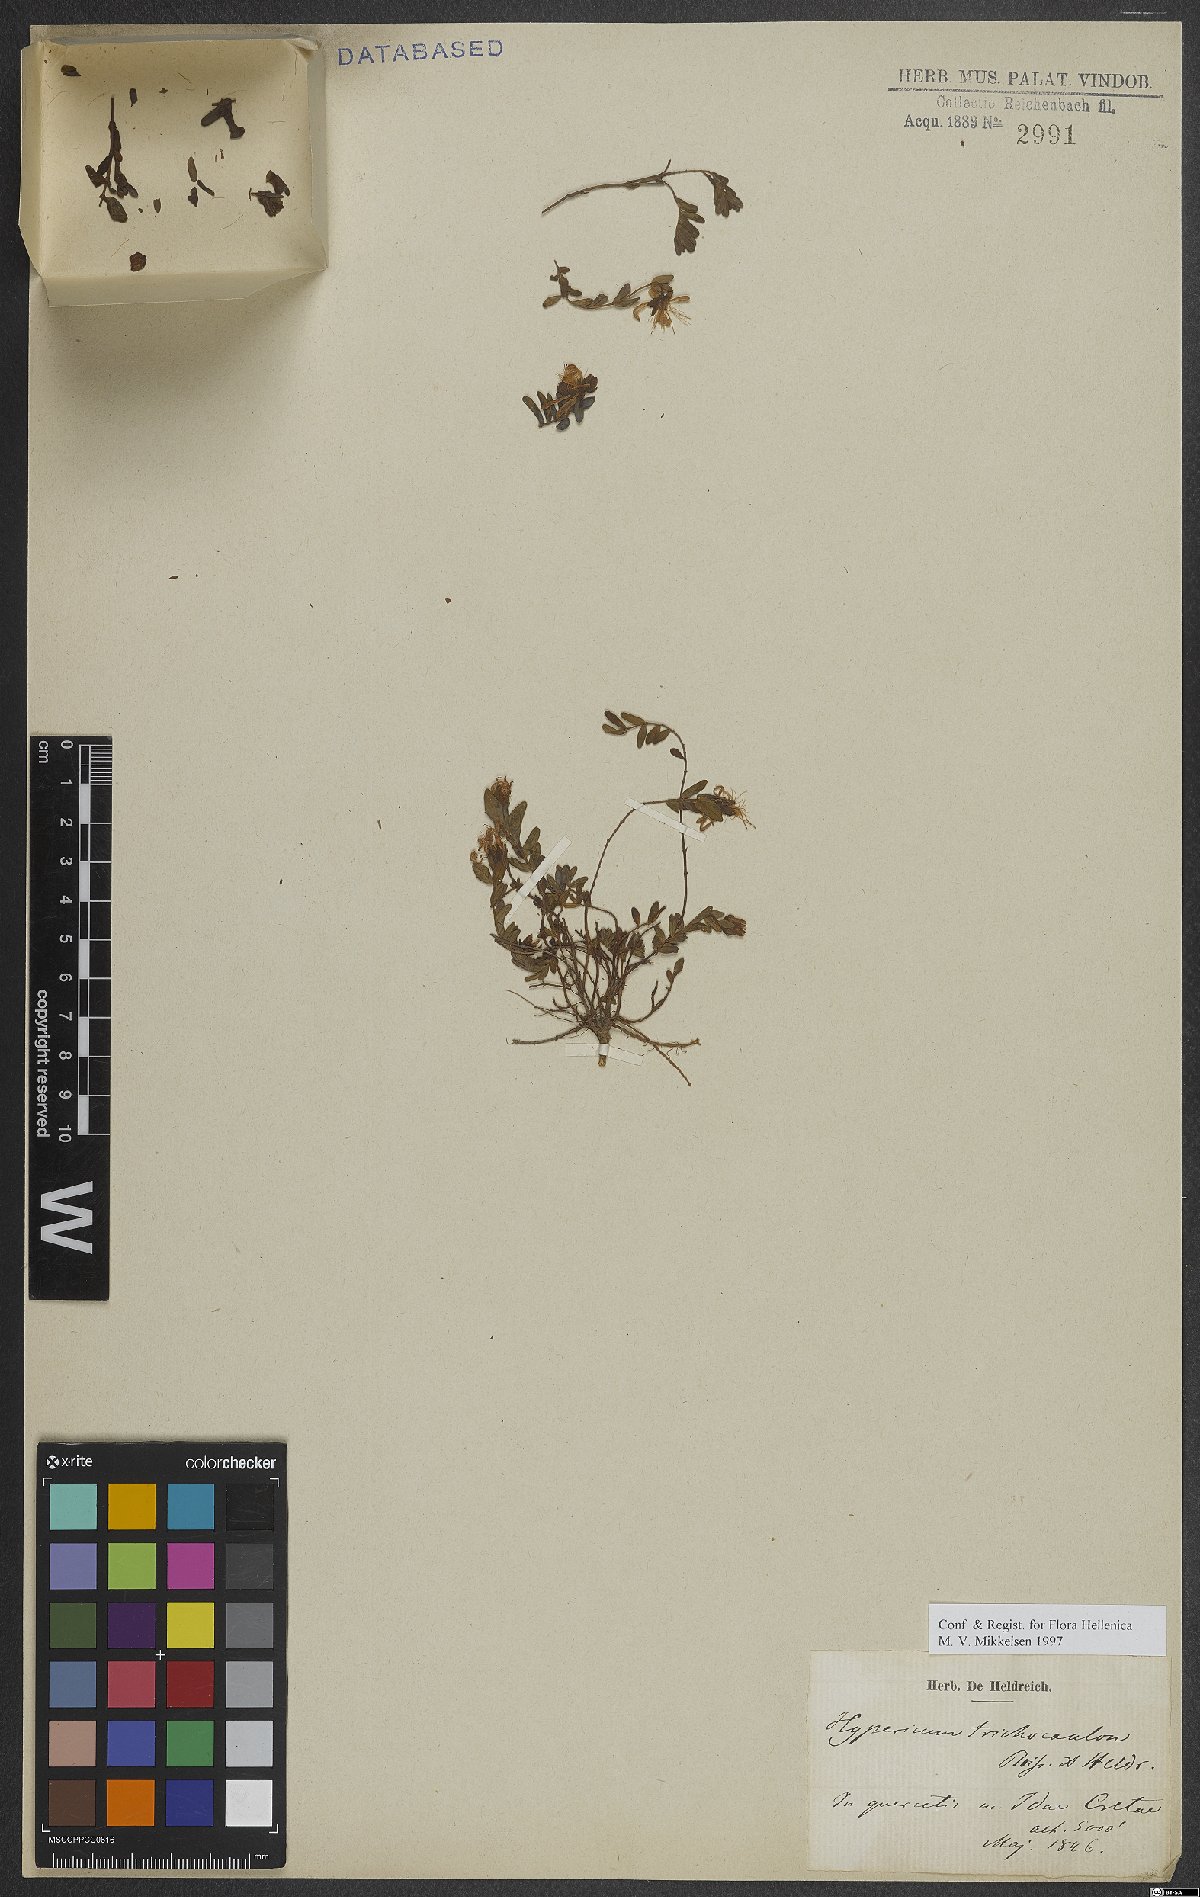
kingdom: Plantae
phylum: Tracheophyta
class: Magnoliopsida
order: Malpighiales
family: Hypericaceae
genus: Hypericum
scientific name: Hypericum trichocaulon
